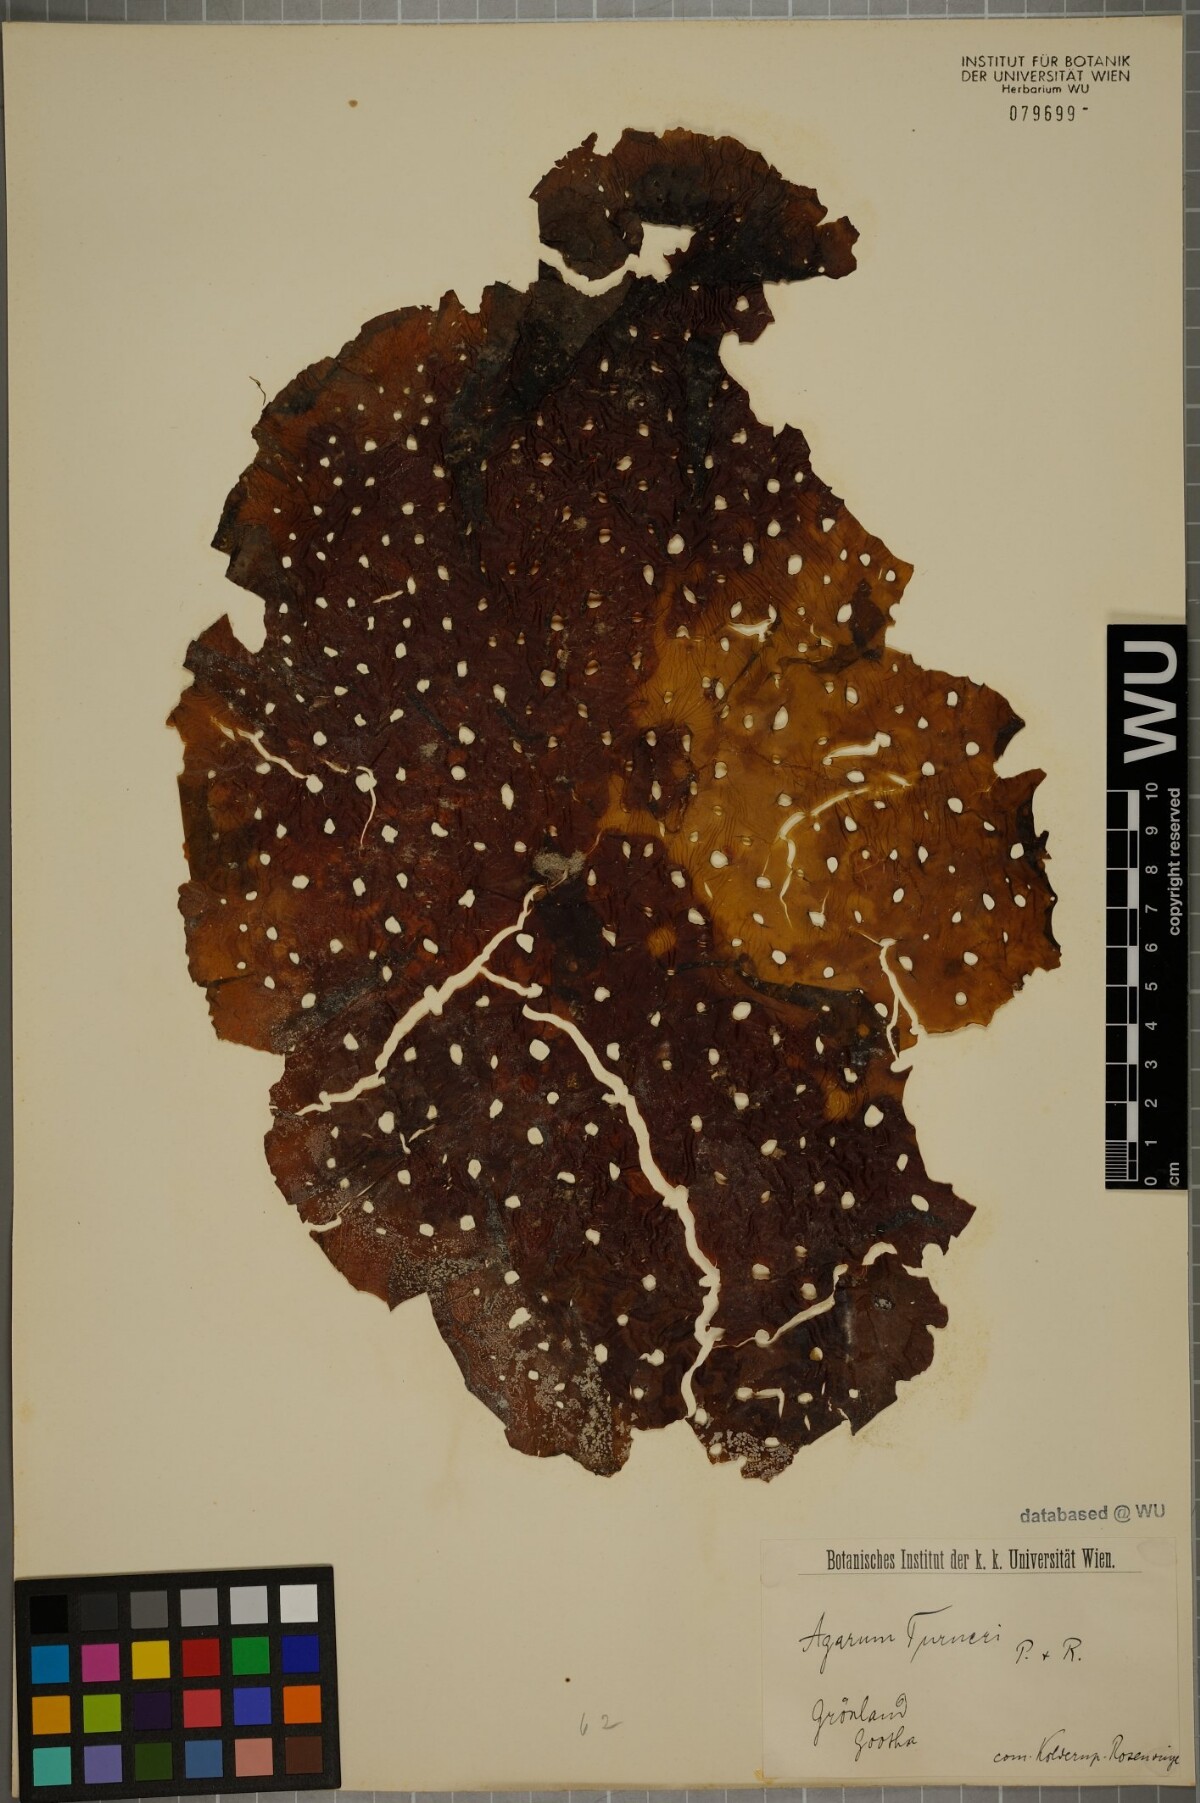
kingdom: Chromista
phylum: Ochrophyta
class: Phaeophyceae
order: Laminariales
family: Costariaceae
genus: Agarum
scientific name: Agarum turneri
